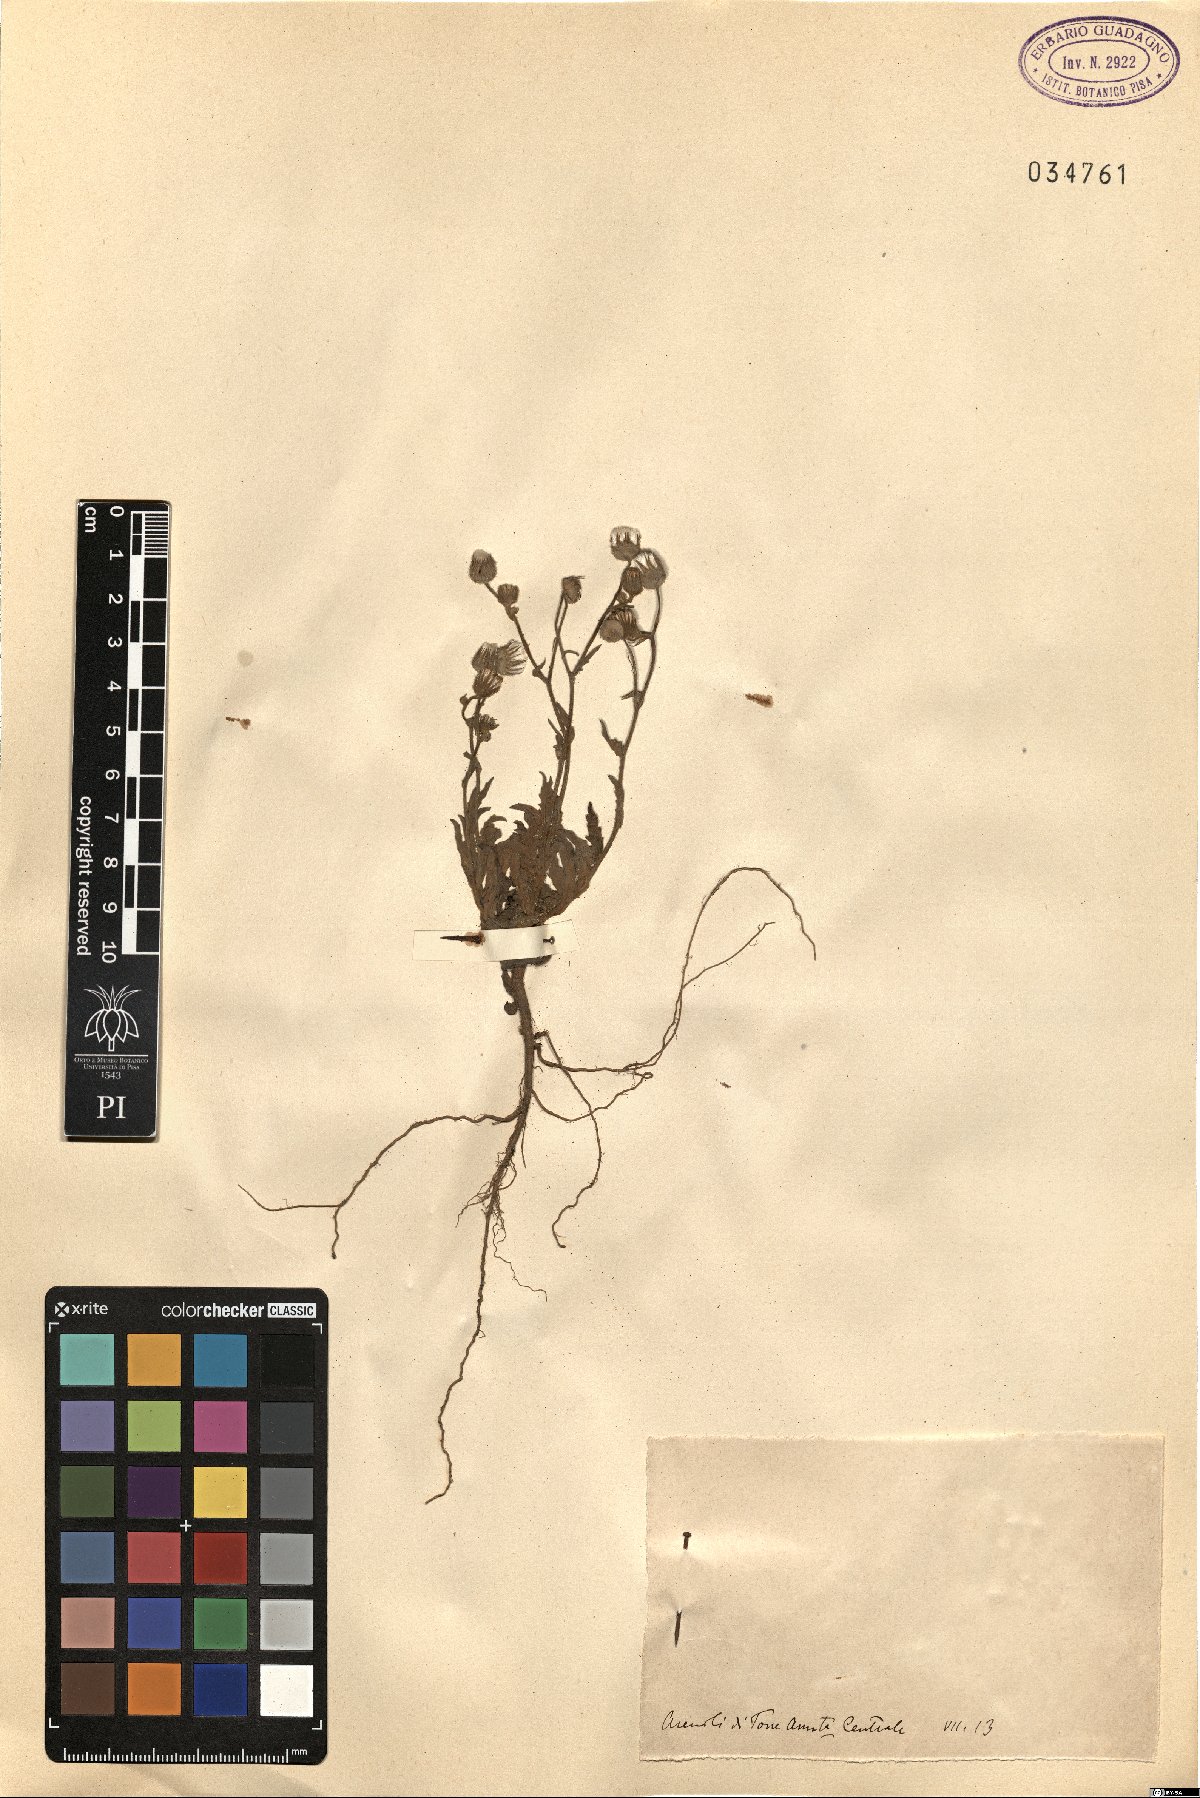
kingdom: Plantae
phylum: Tracheophyta
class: Magnoliopsida
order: Asterales
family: Asteraceae
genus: Andryala
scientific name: Andryala
